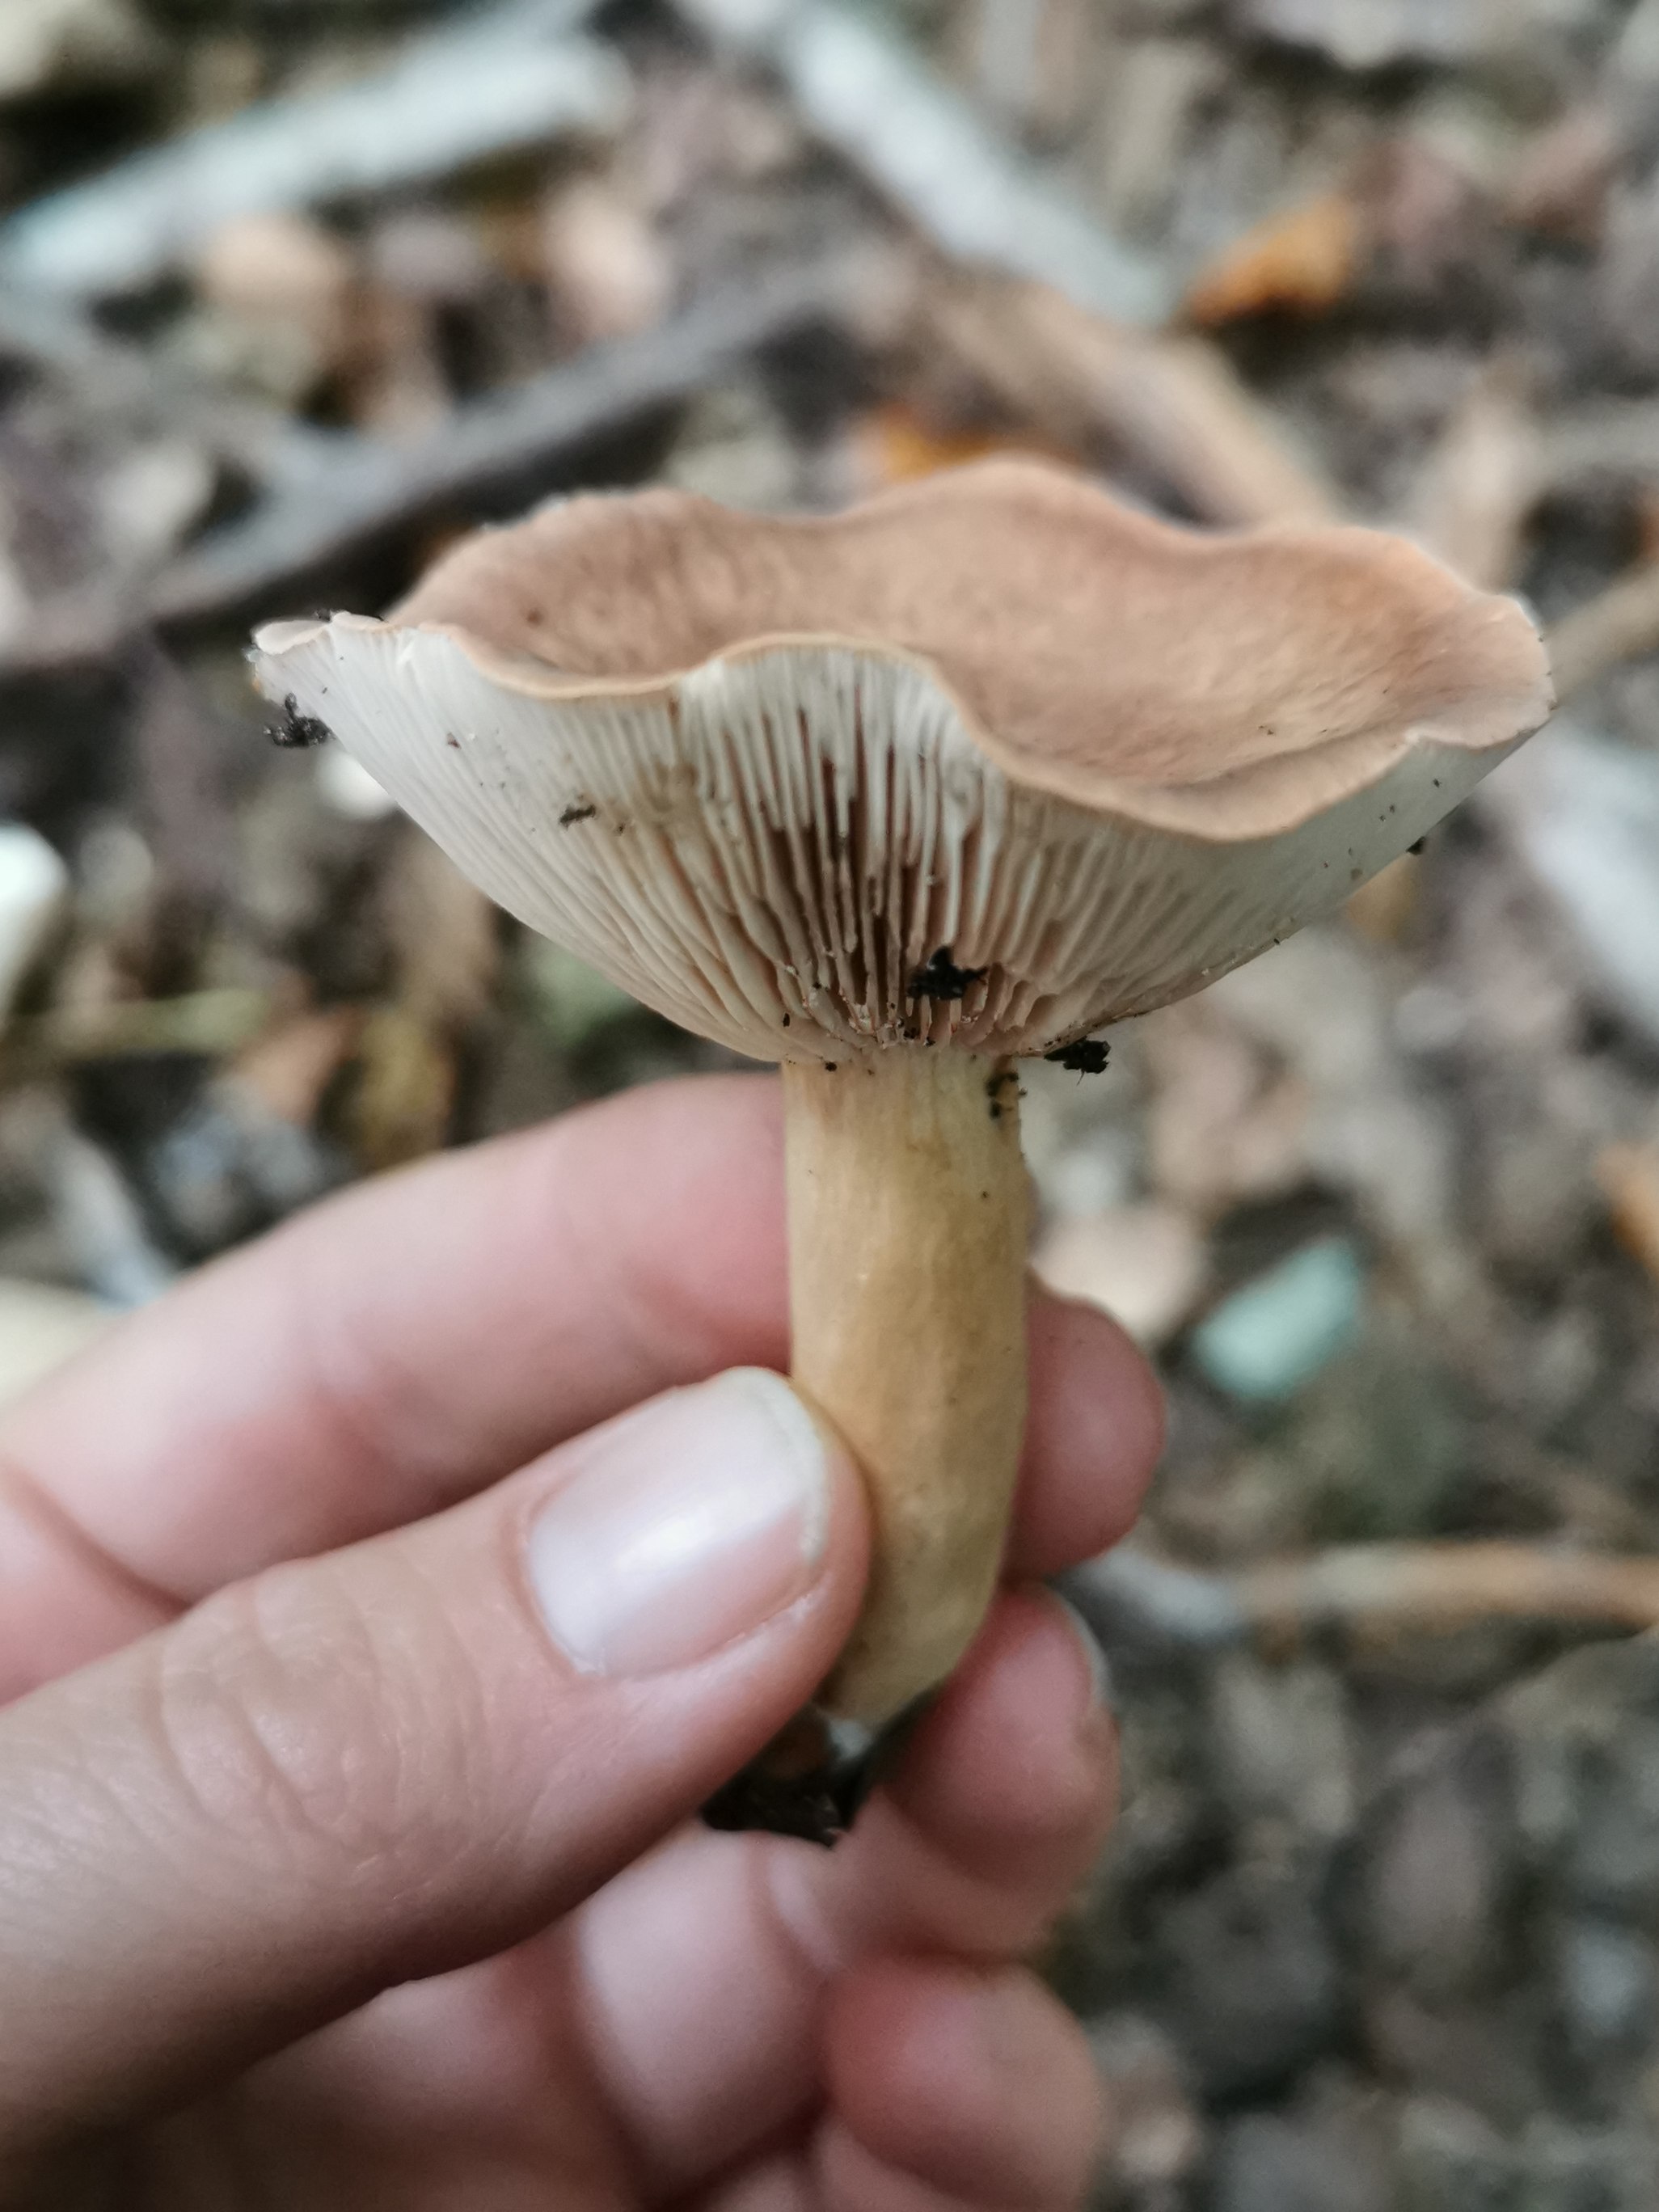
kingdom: Fungi
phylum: Basidiomycota
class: Agaricomycetes
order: Russulales
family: Russulaceae
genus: Lactarius
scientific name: Lactarius
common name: mælkehat
